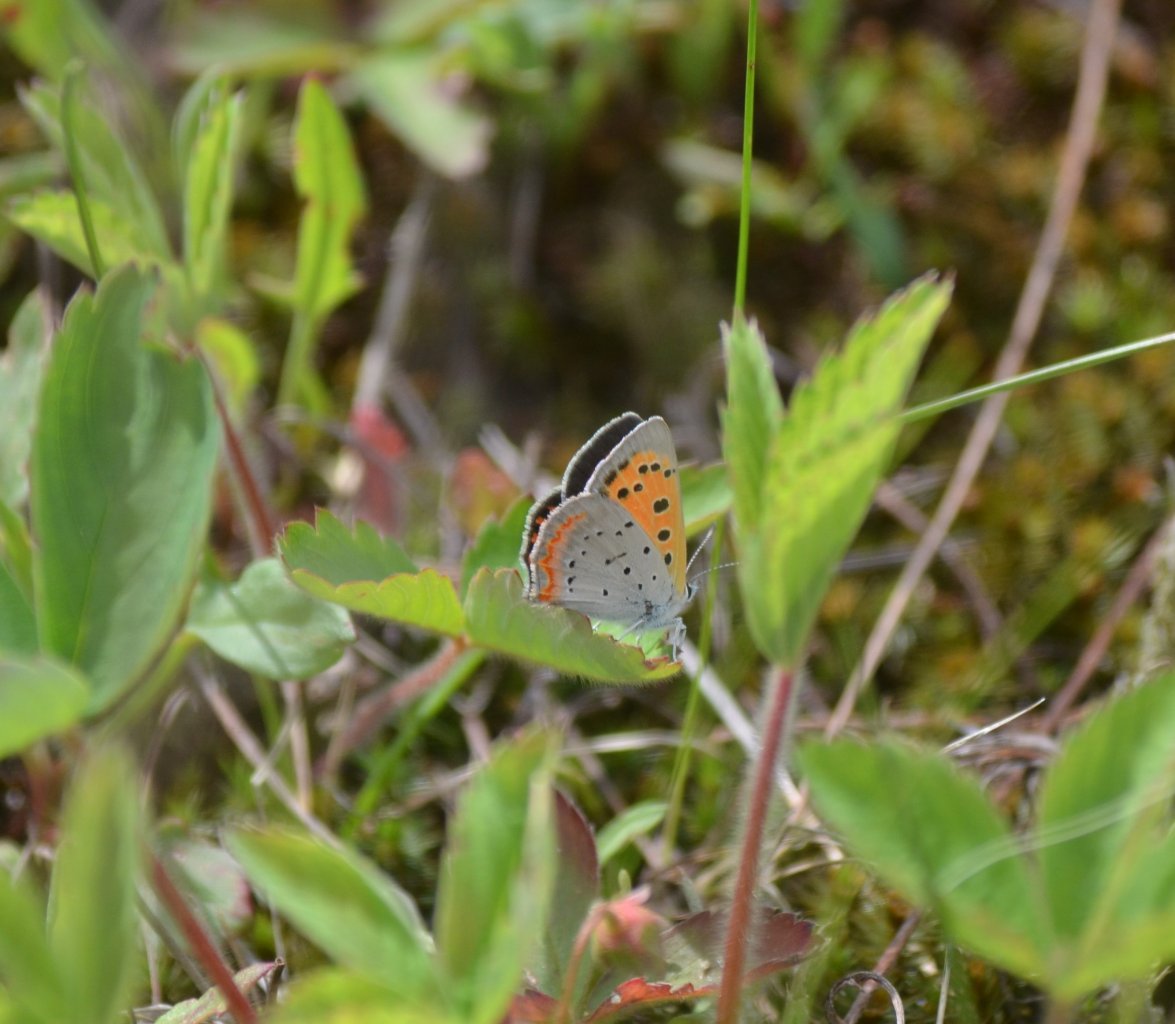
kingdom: Animalia
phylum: Arthropoda
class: Insecta
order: Lepidoptera
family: Lycaenidae
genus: Lycaena
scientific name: Lycaena phlaeas
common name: American Copper
